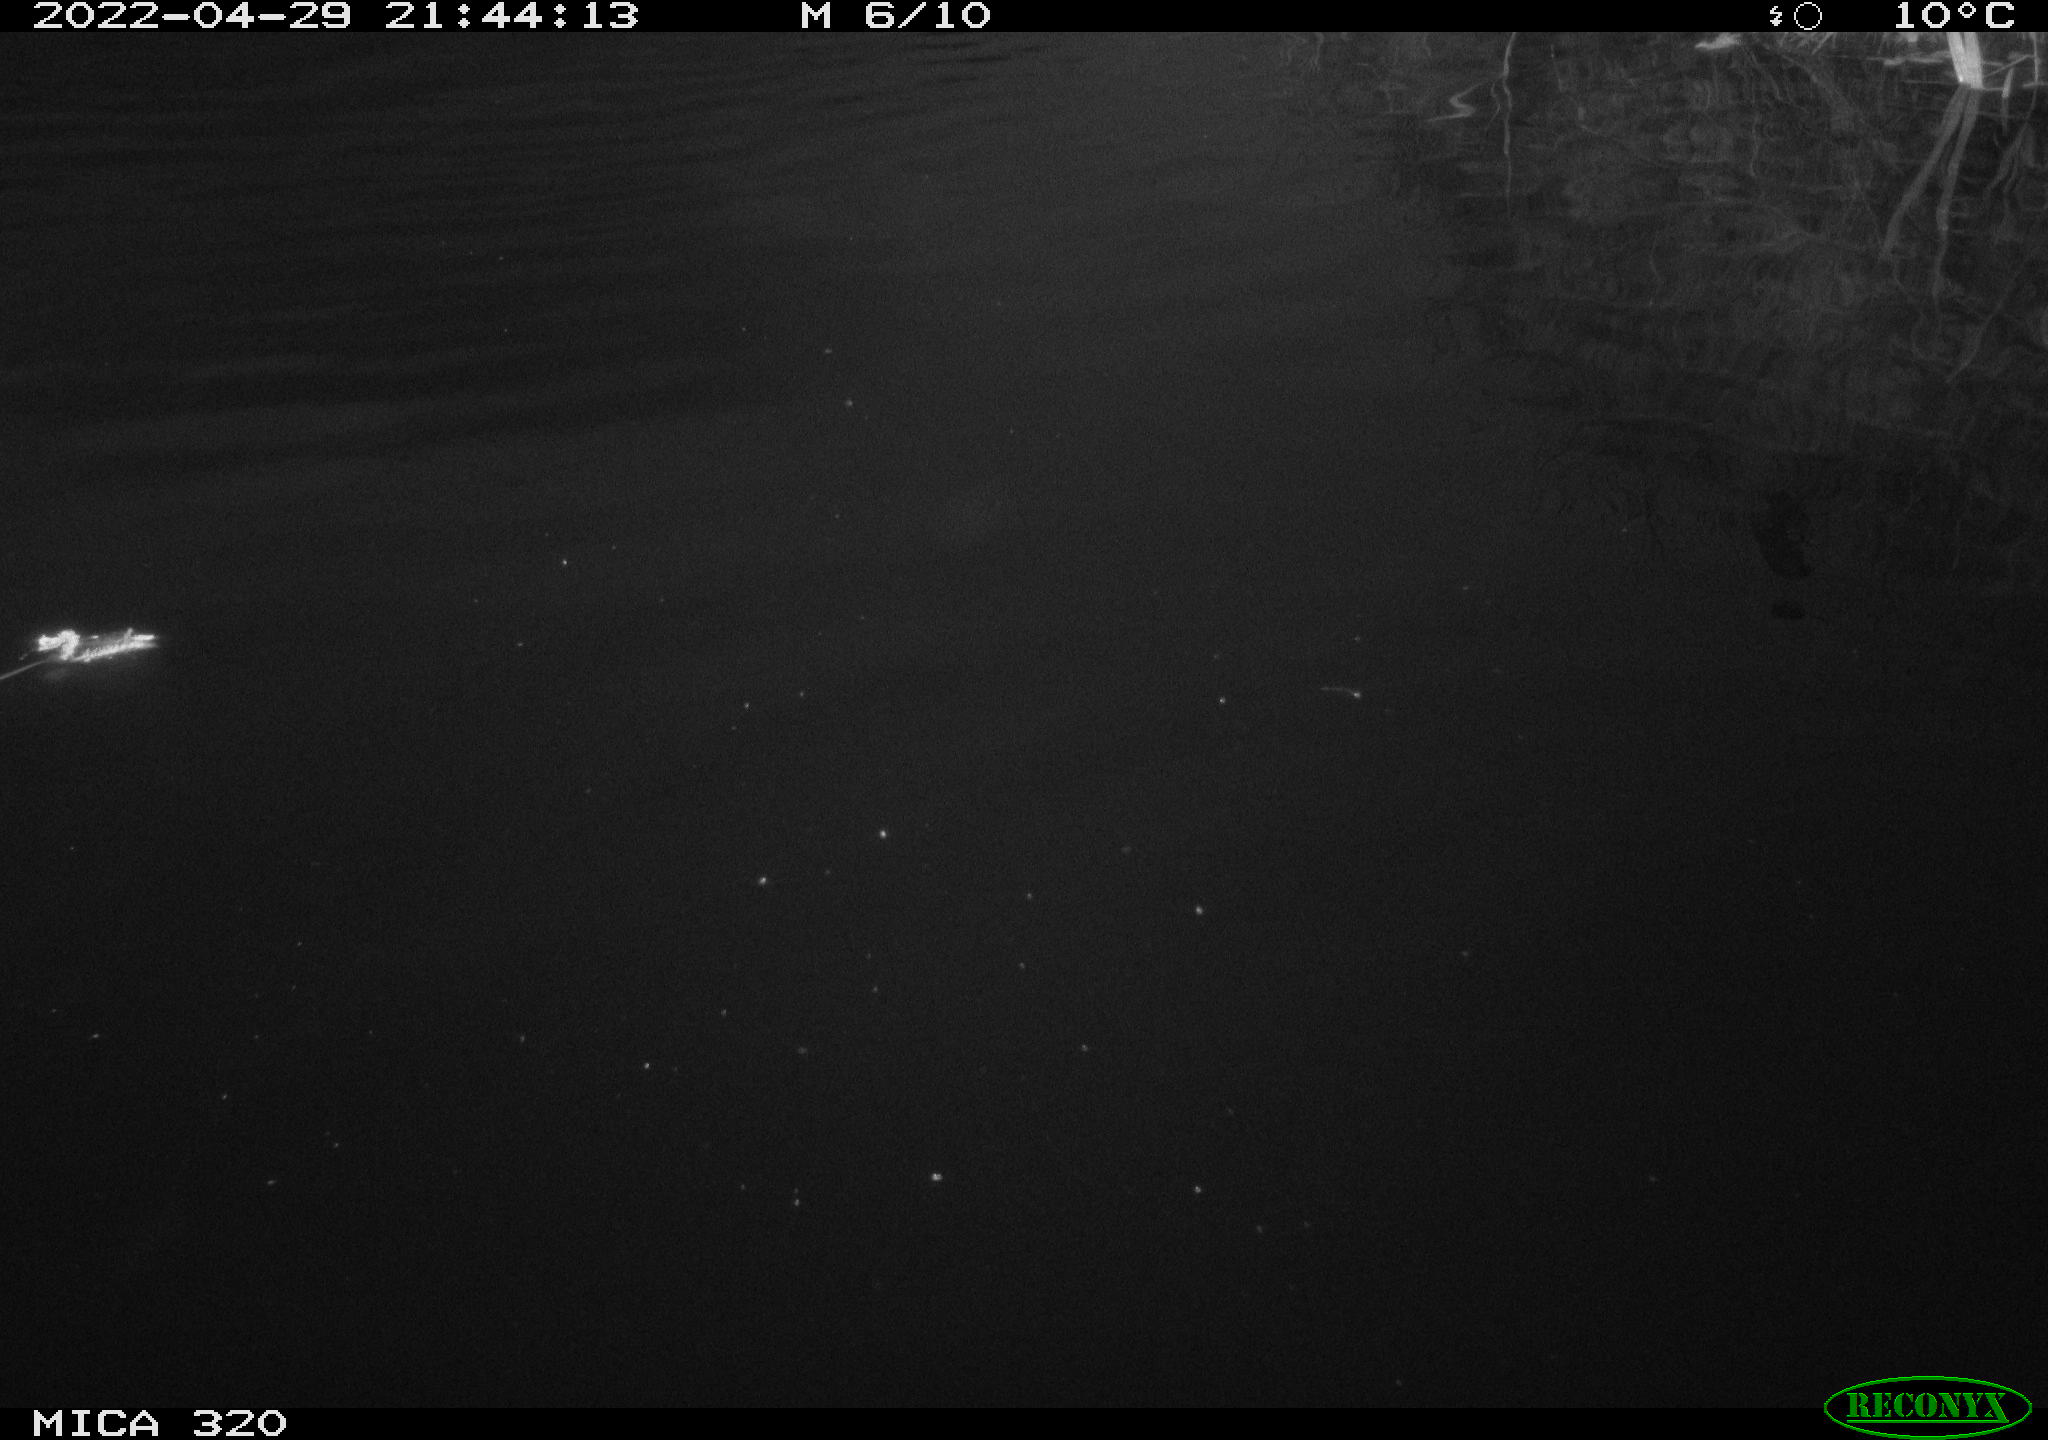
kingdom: Animalia
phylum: Chordata
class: Aves
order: Anseriformes
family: Anatidae
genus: Anas
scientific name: Anas platyrhynchos
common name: Mallard
